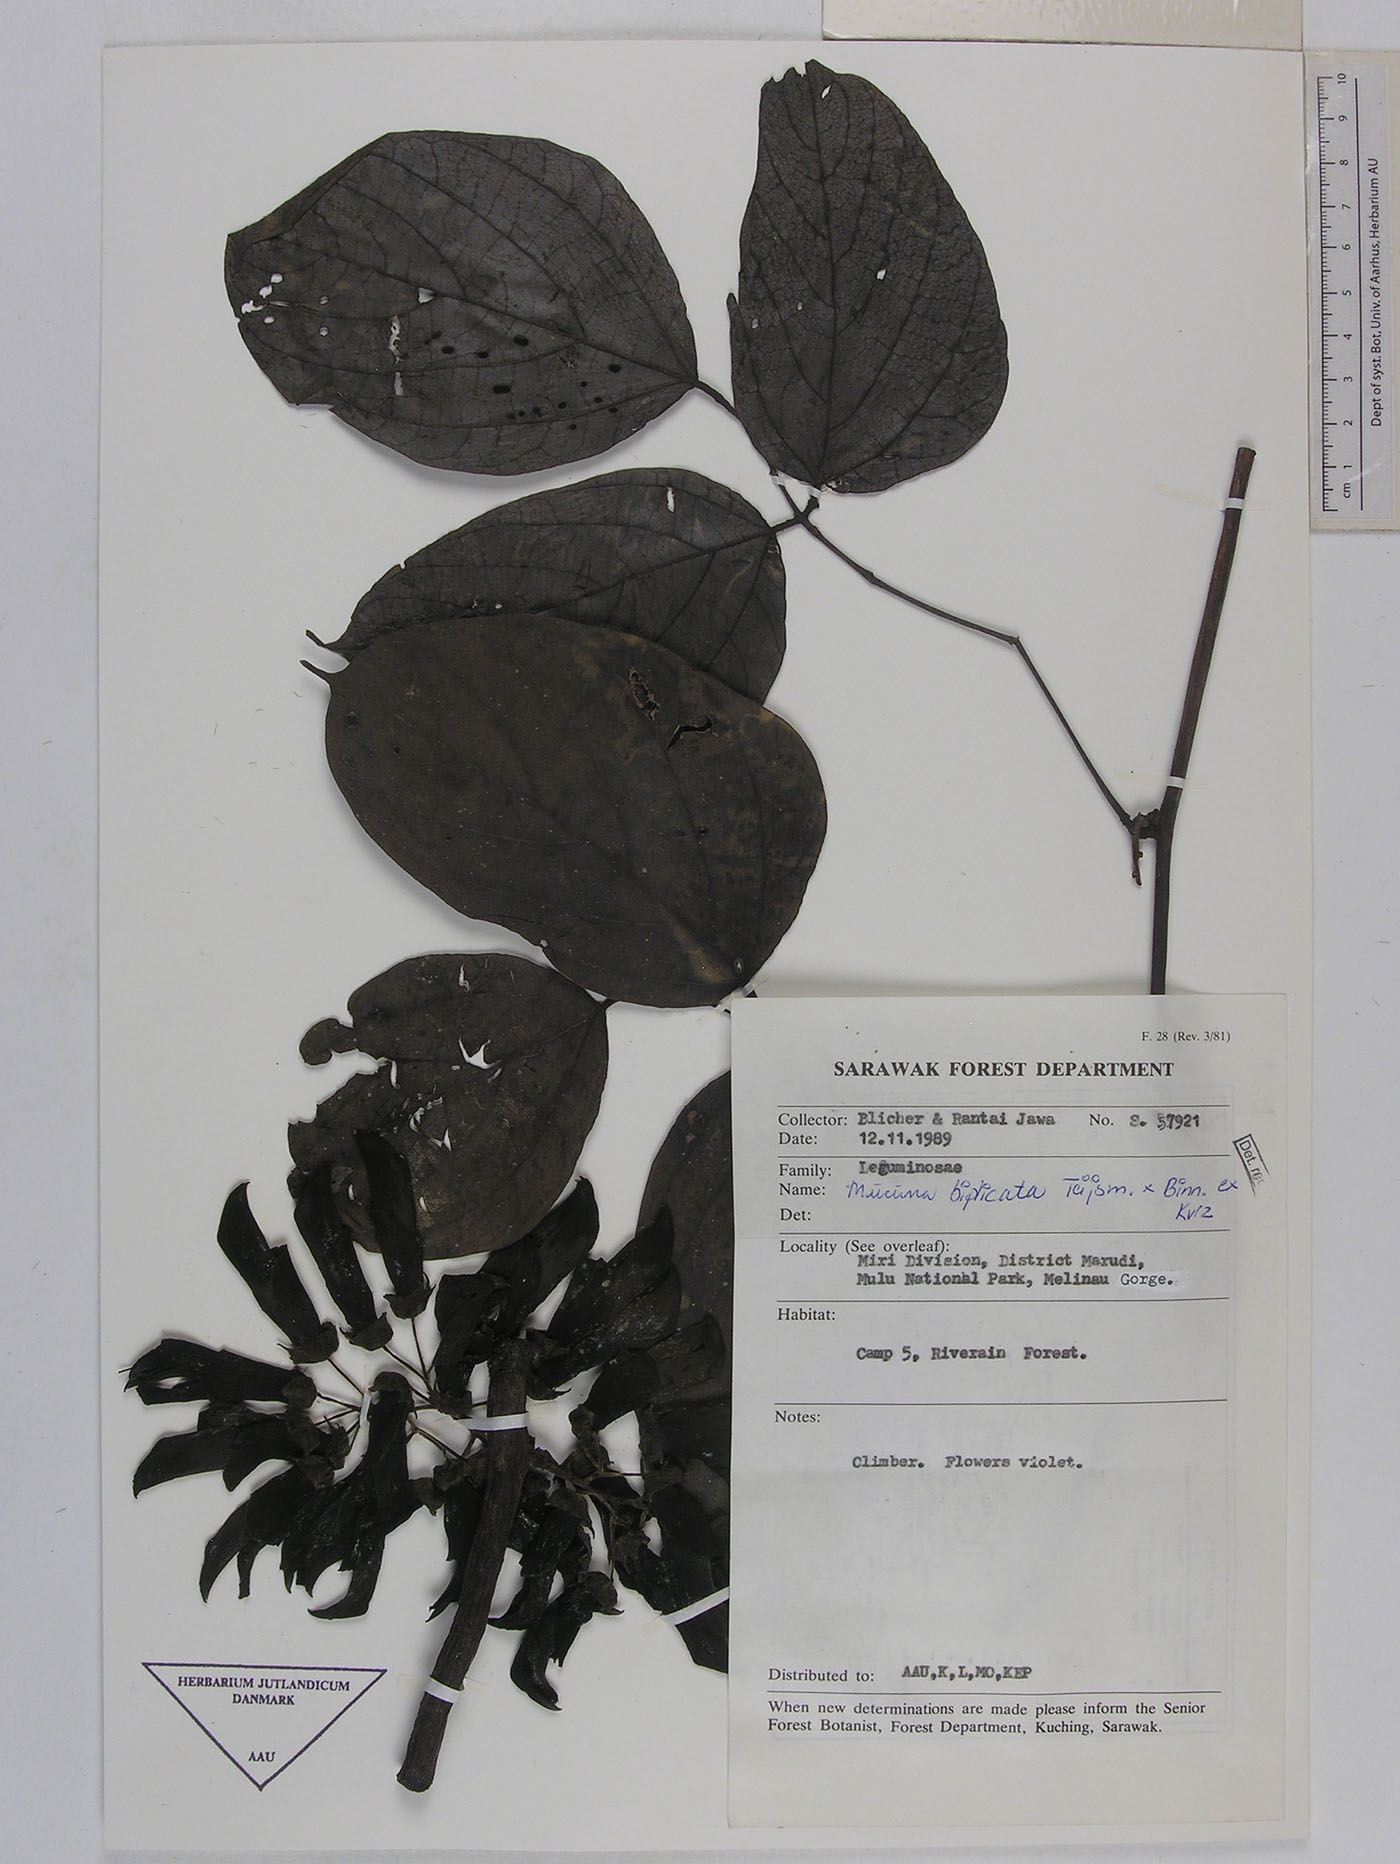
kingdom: Plantae
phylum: Tracheophyta
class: Magnoliopsida
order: Fabales
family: Fabaceae
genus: Mucuna
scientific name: Mucuna biplicata
